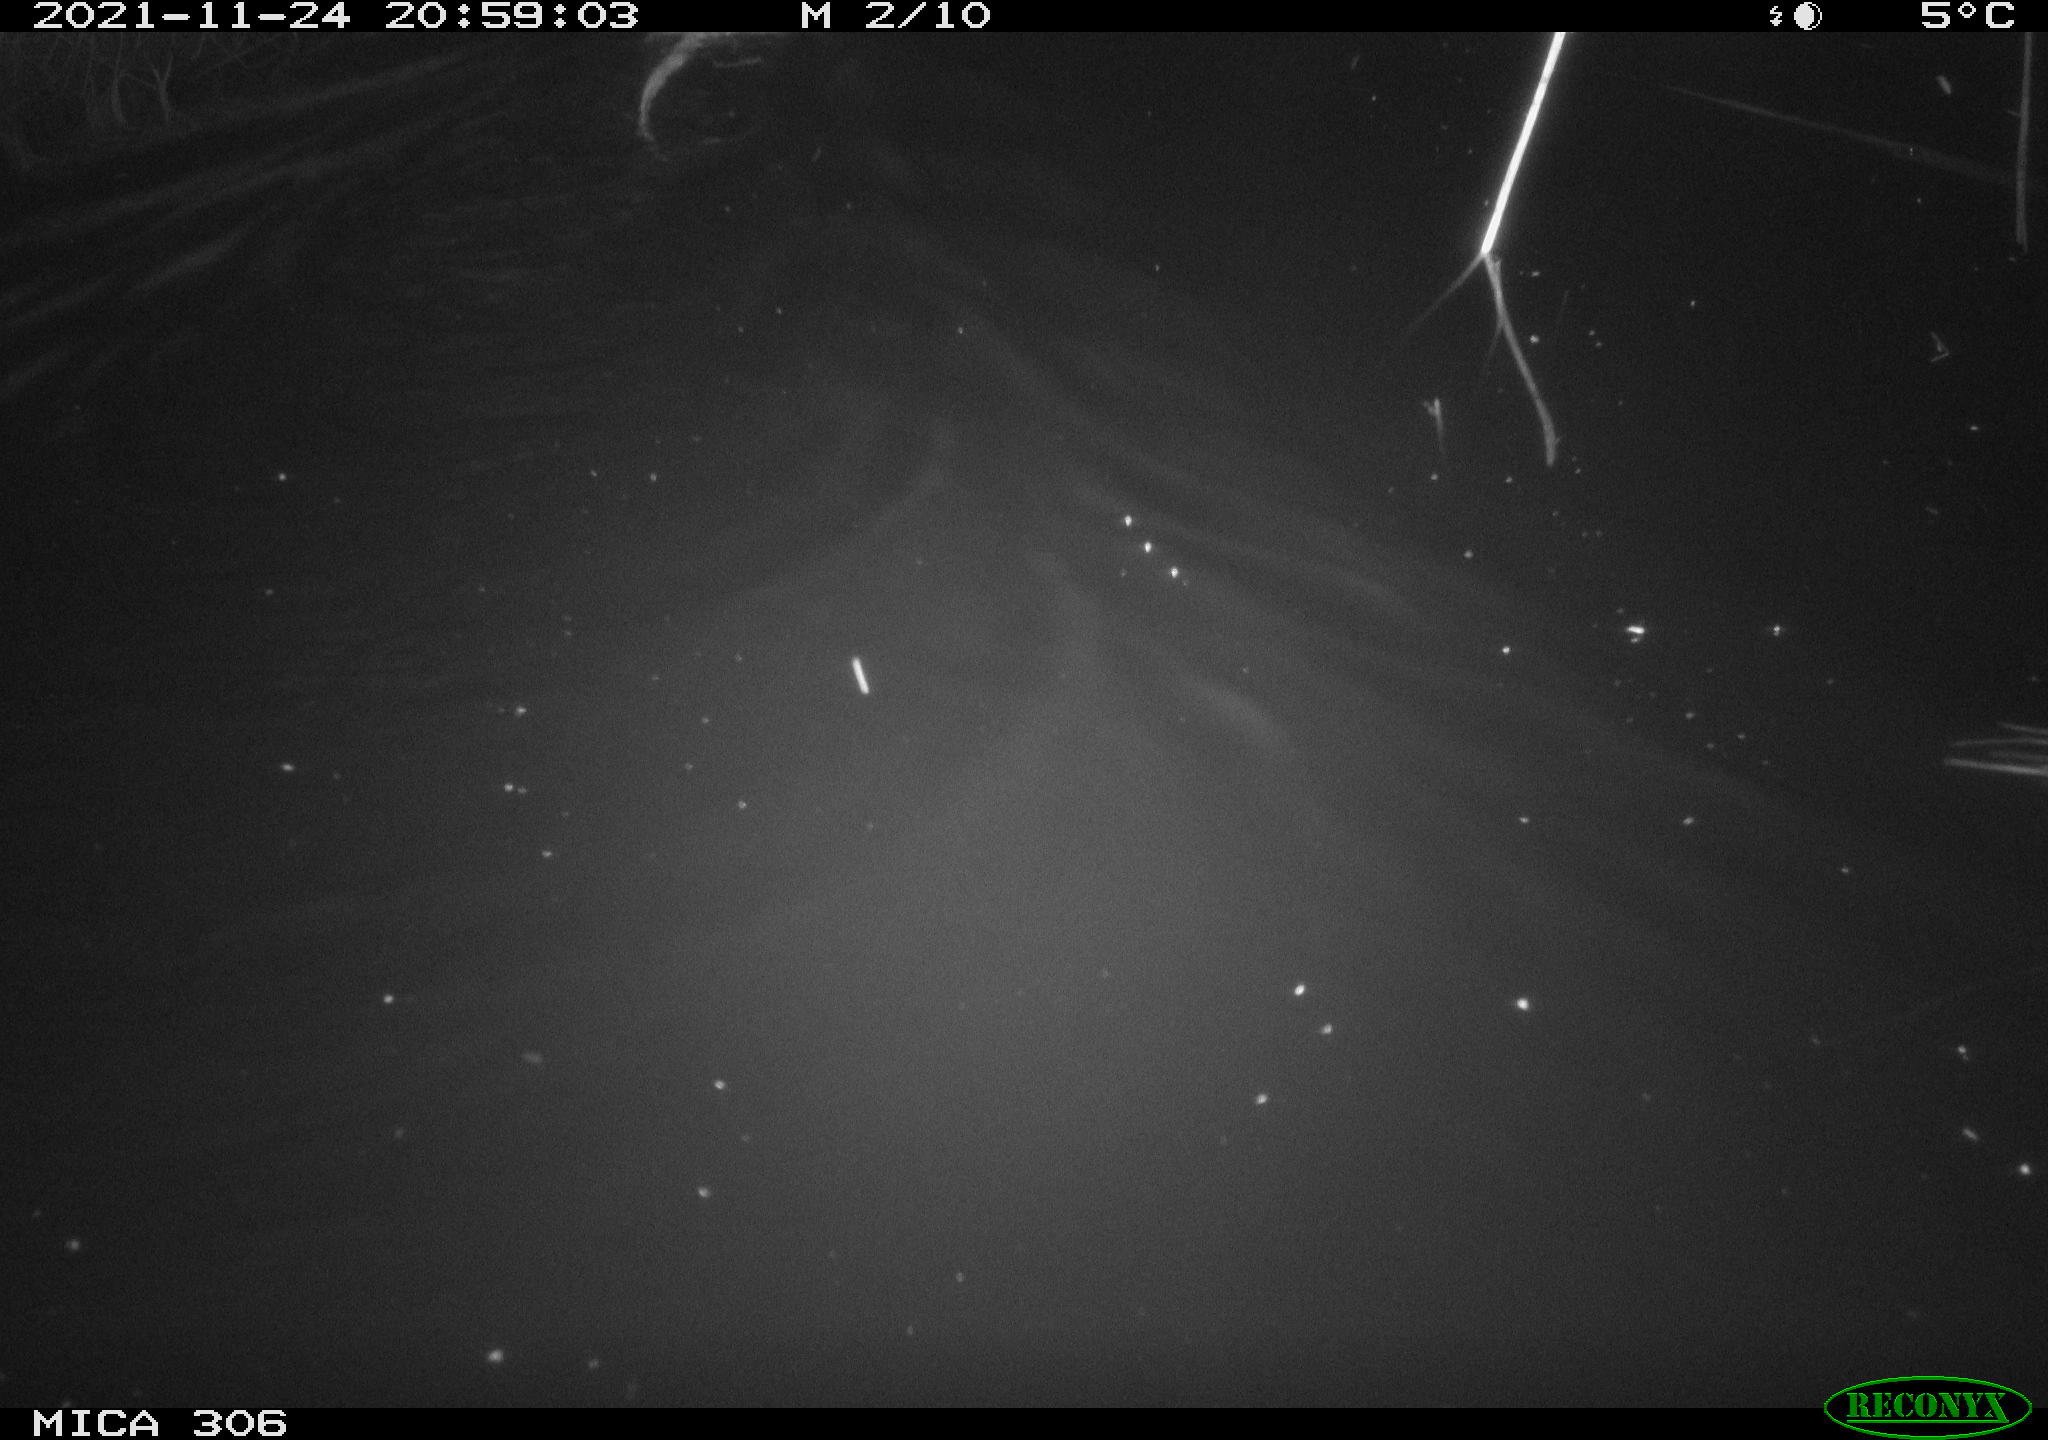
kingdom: Animalia
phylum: Chordata
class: Mammalia
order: Rodentia
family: Cricetidae
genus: Ondatra
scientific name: Ondatra zibethicus
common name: Muskrat
